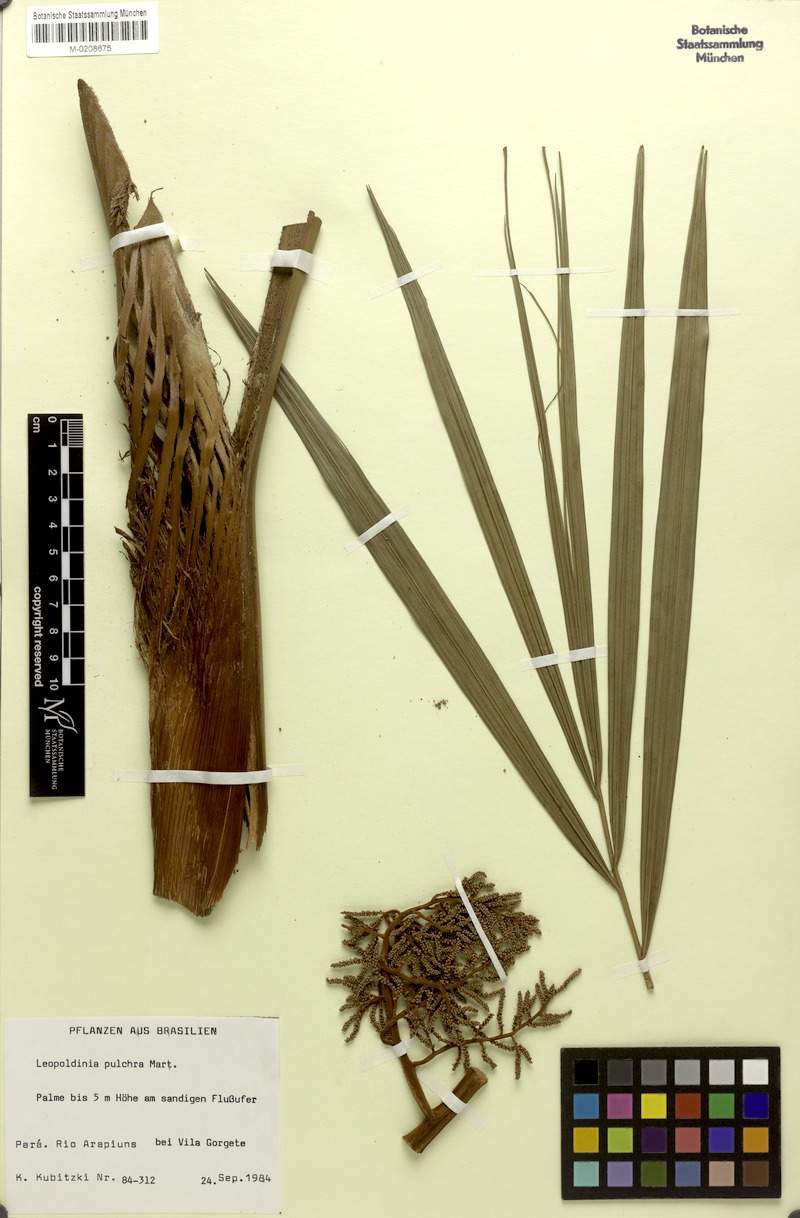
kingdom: Plantae
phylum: Tracheophyta
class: Liliopsida
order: Arecales
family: Arecaceae
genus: Leopoldinia
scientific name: Leopoldinia pulchra
